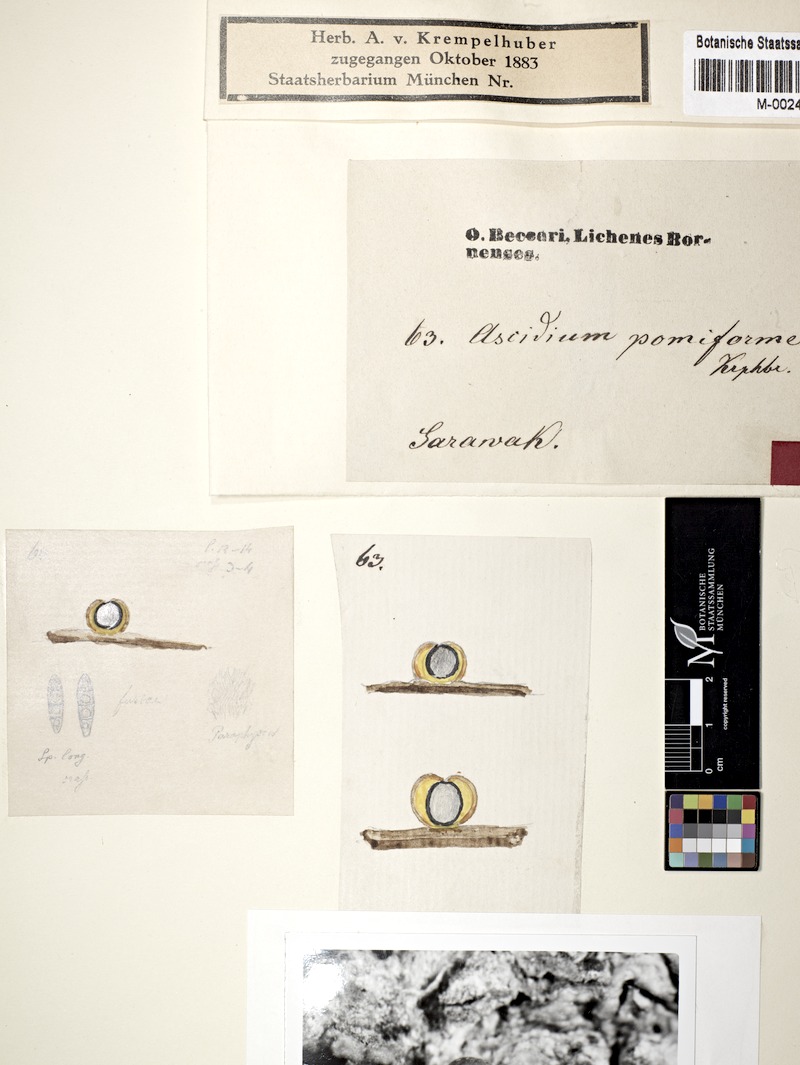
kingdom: Fungi
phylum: Ascomycota
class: Lecanoromycetes
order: Ostropales
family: Graphidaceae
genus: Ocellularia
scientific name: Ocellularia pomiformis
